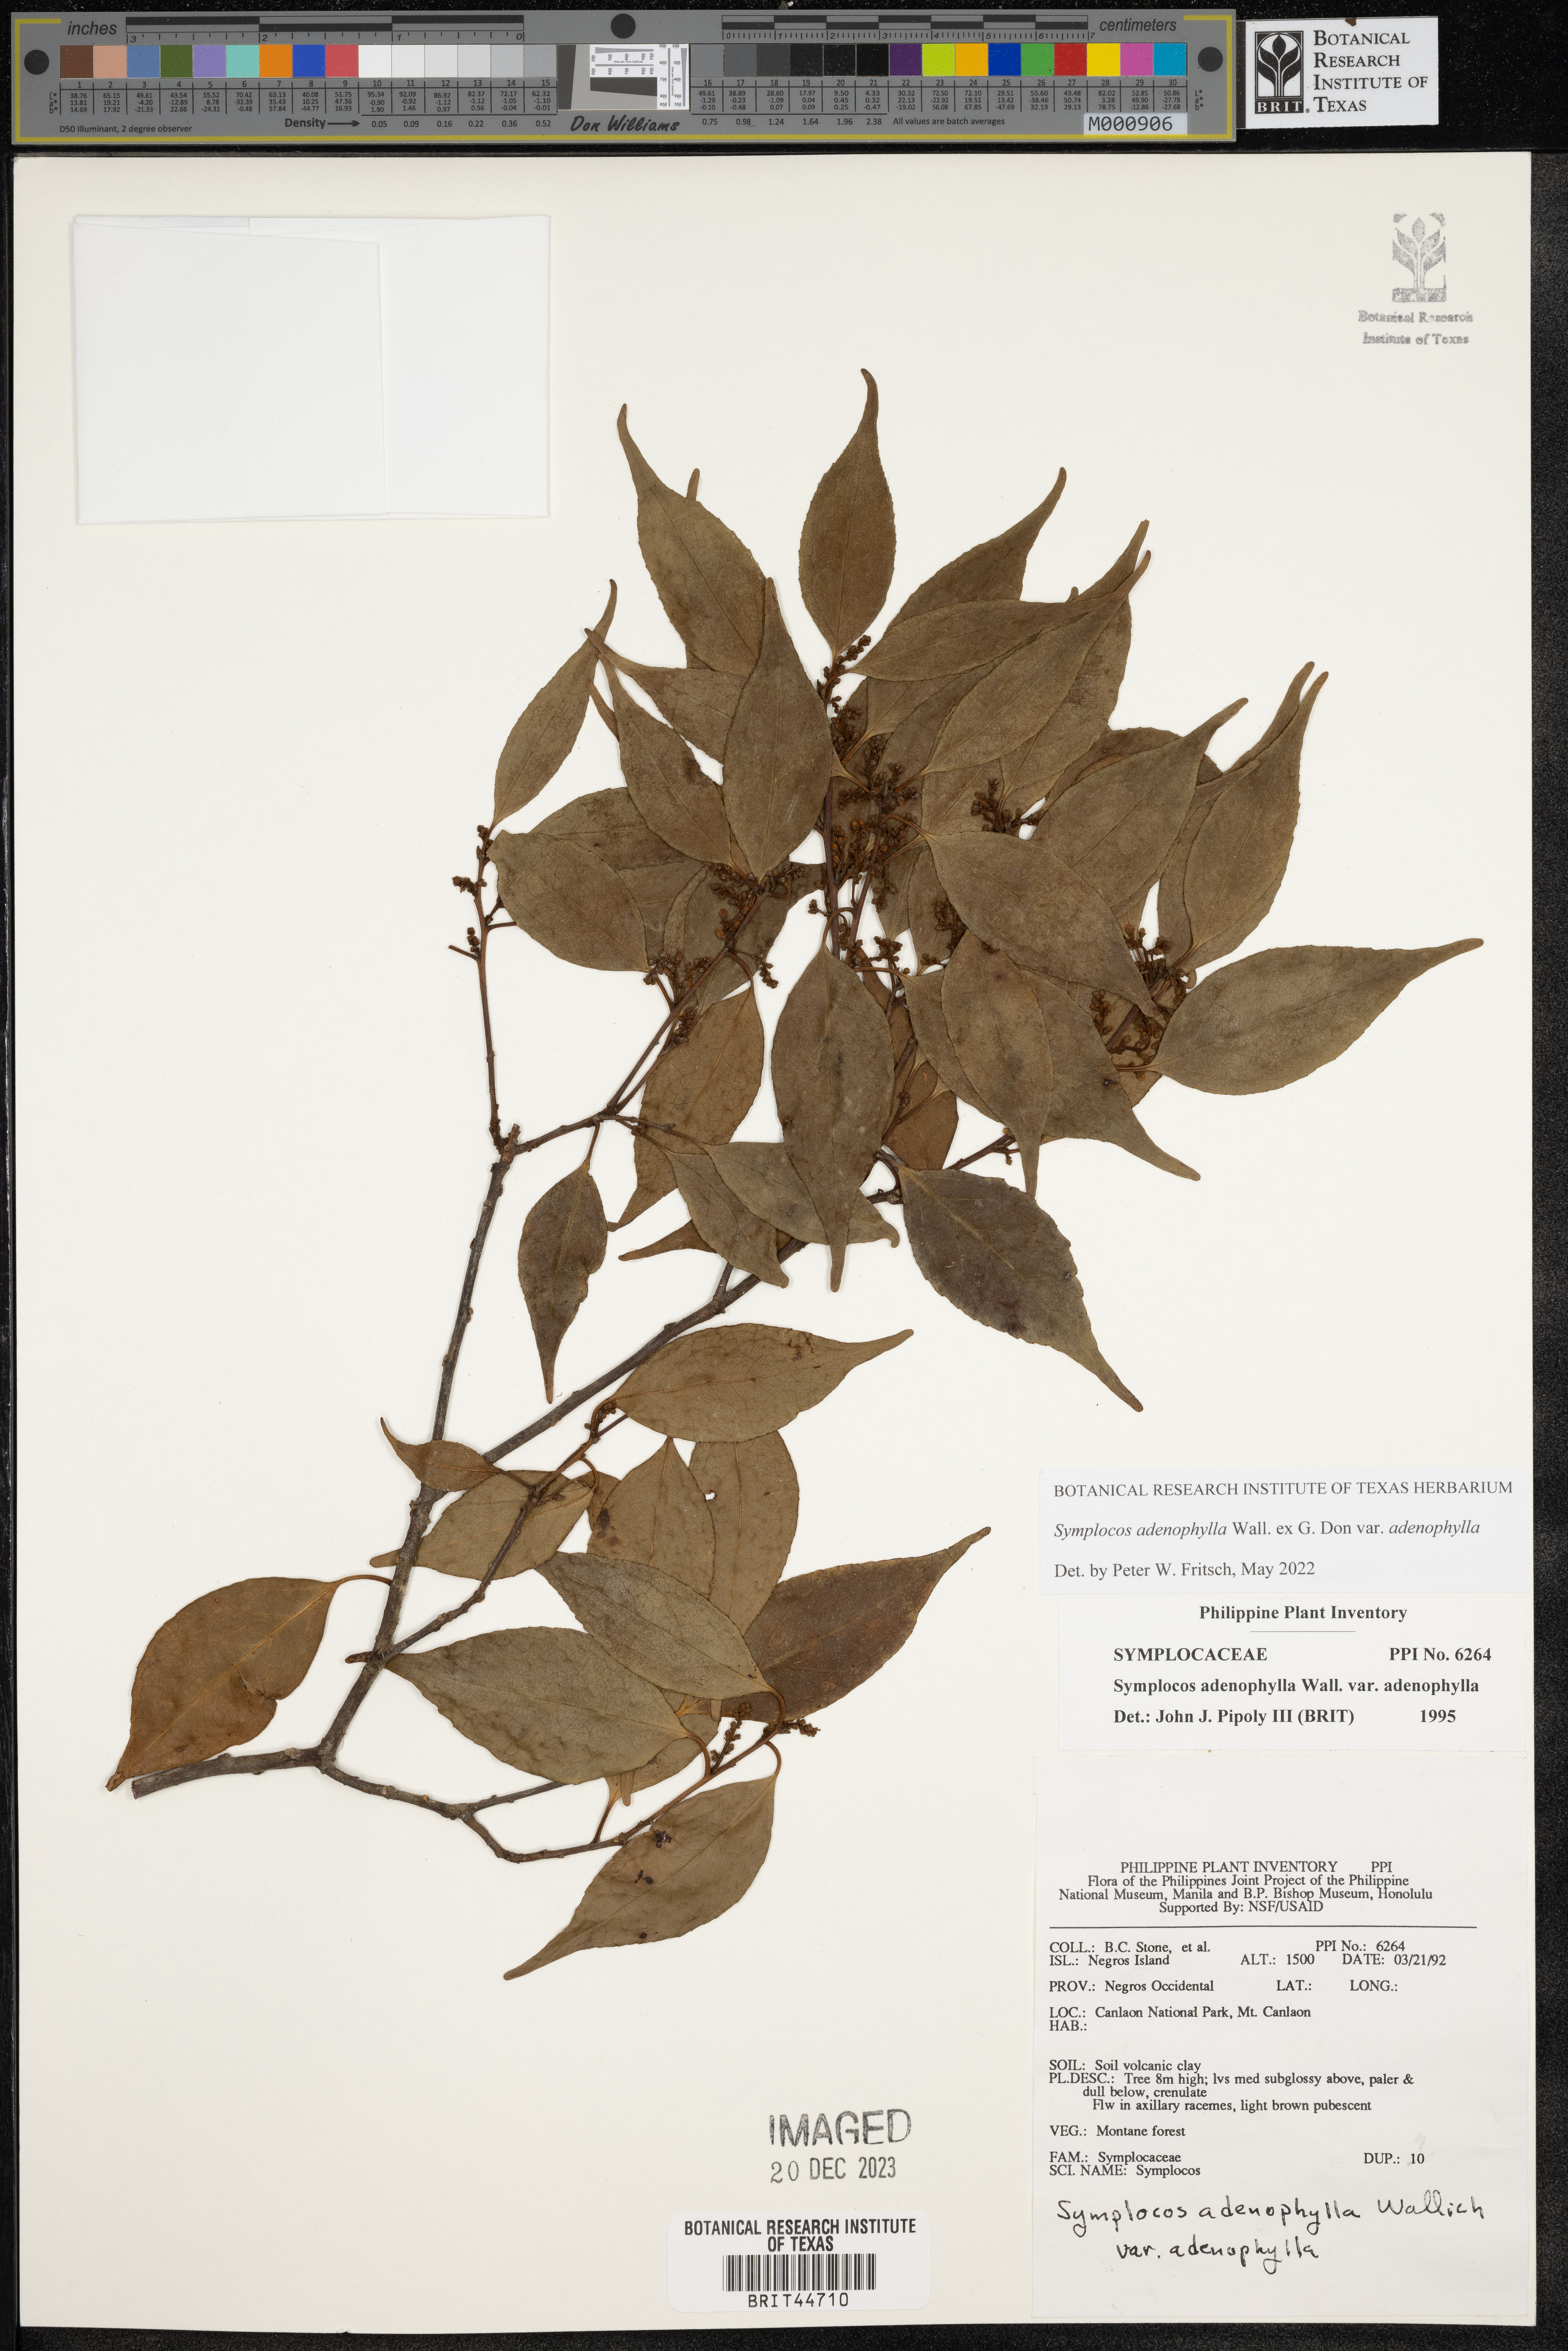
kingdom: Plantae
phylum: Tracheophyta
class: Magnoliopsida
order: Ericales
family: Symplocaceae
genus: Symplocos
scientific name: Symplocos adenophylla
